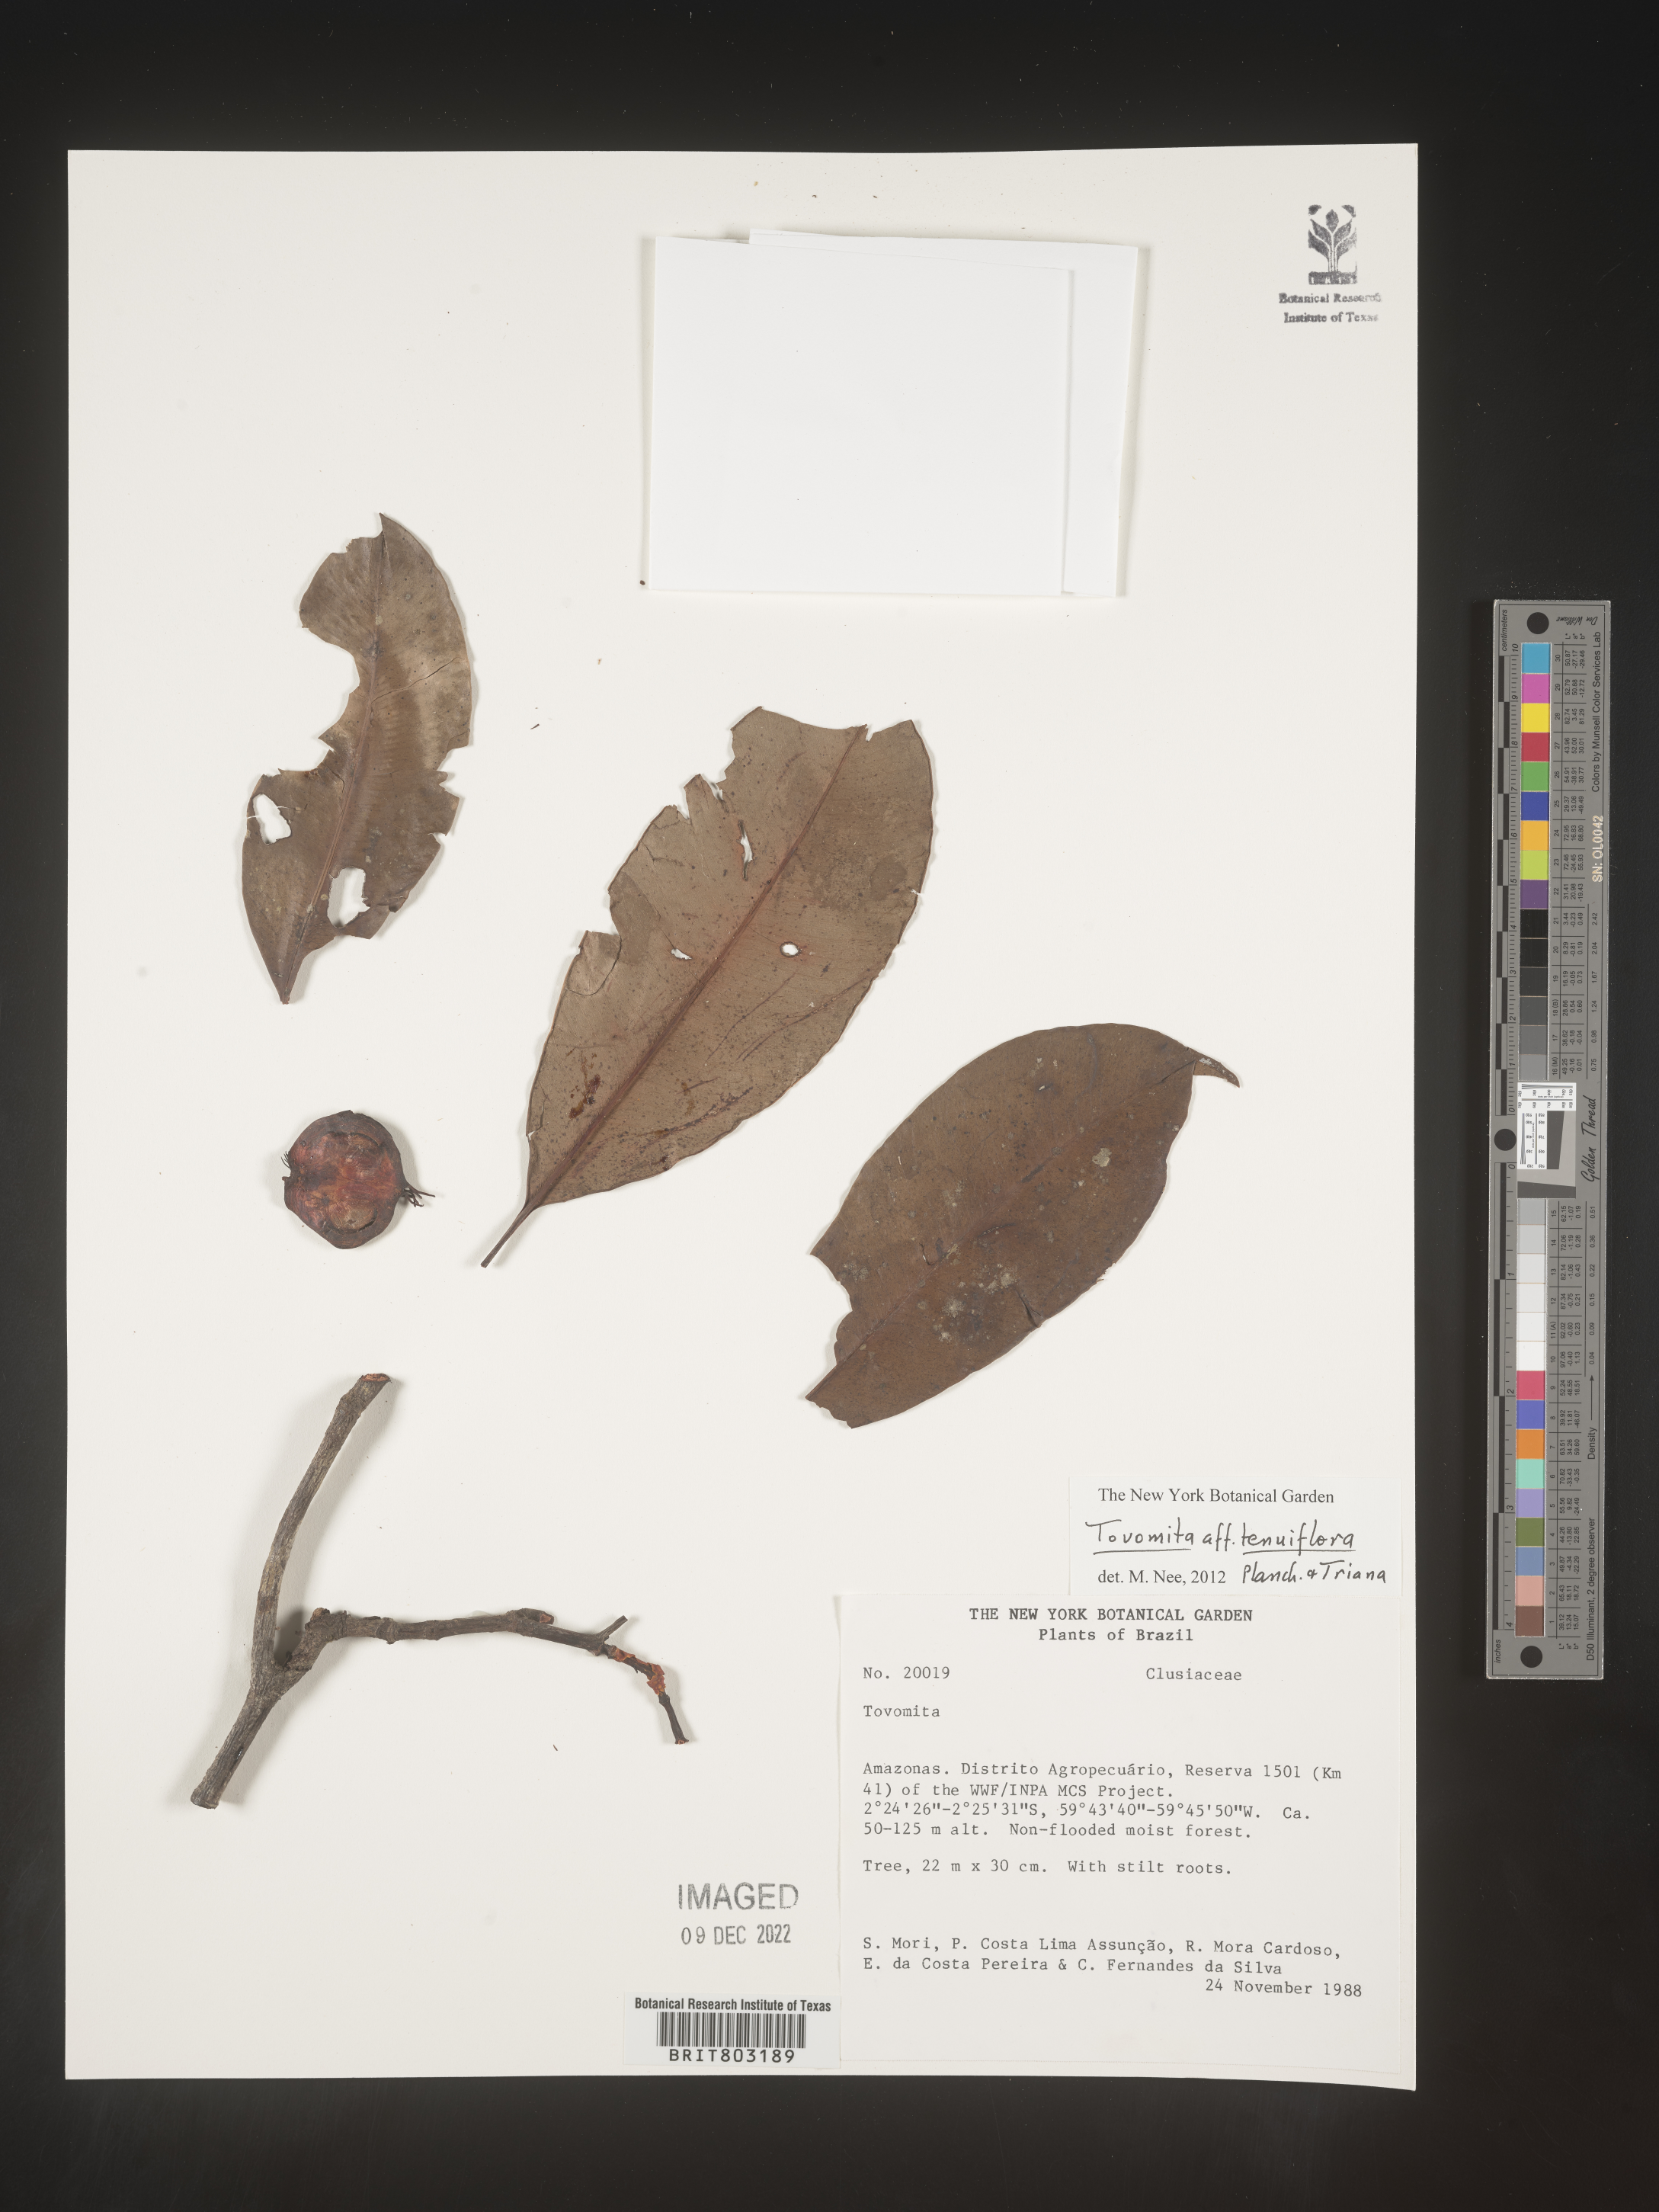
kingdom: Plantae
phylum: Tracheophyta
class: Magnoliopsida
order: Malpighiales
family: Clusiaceae
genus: Tovomita
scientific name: Tovomita
